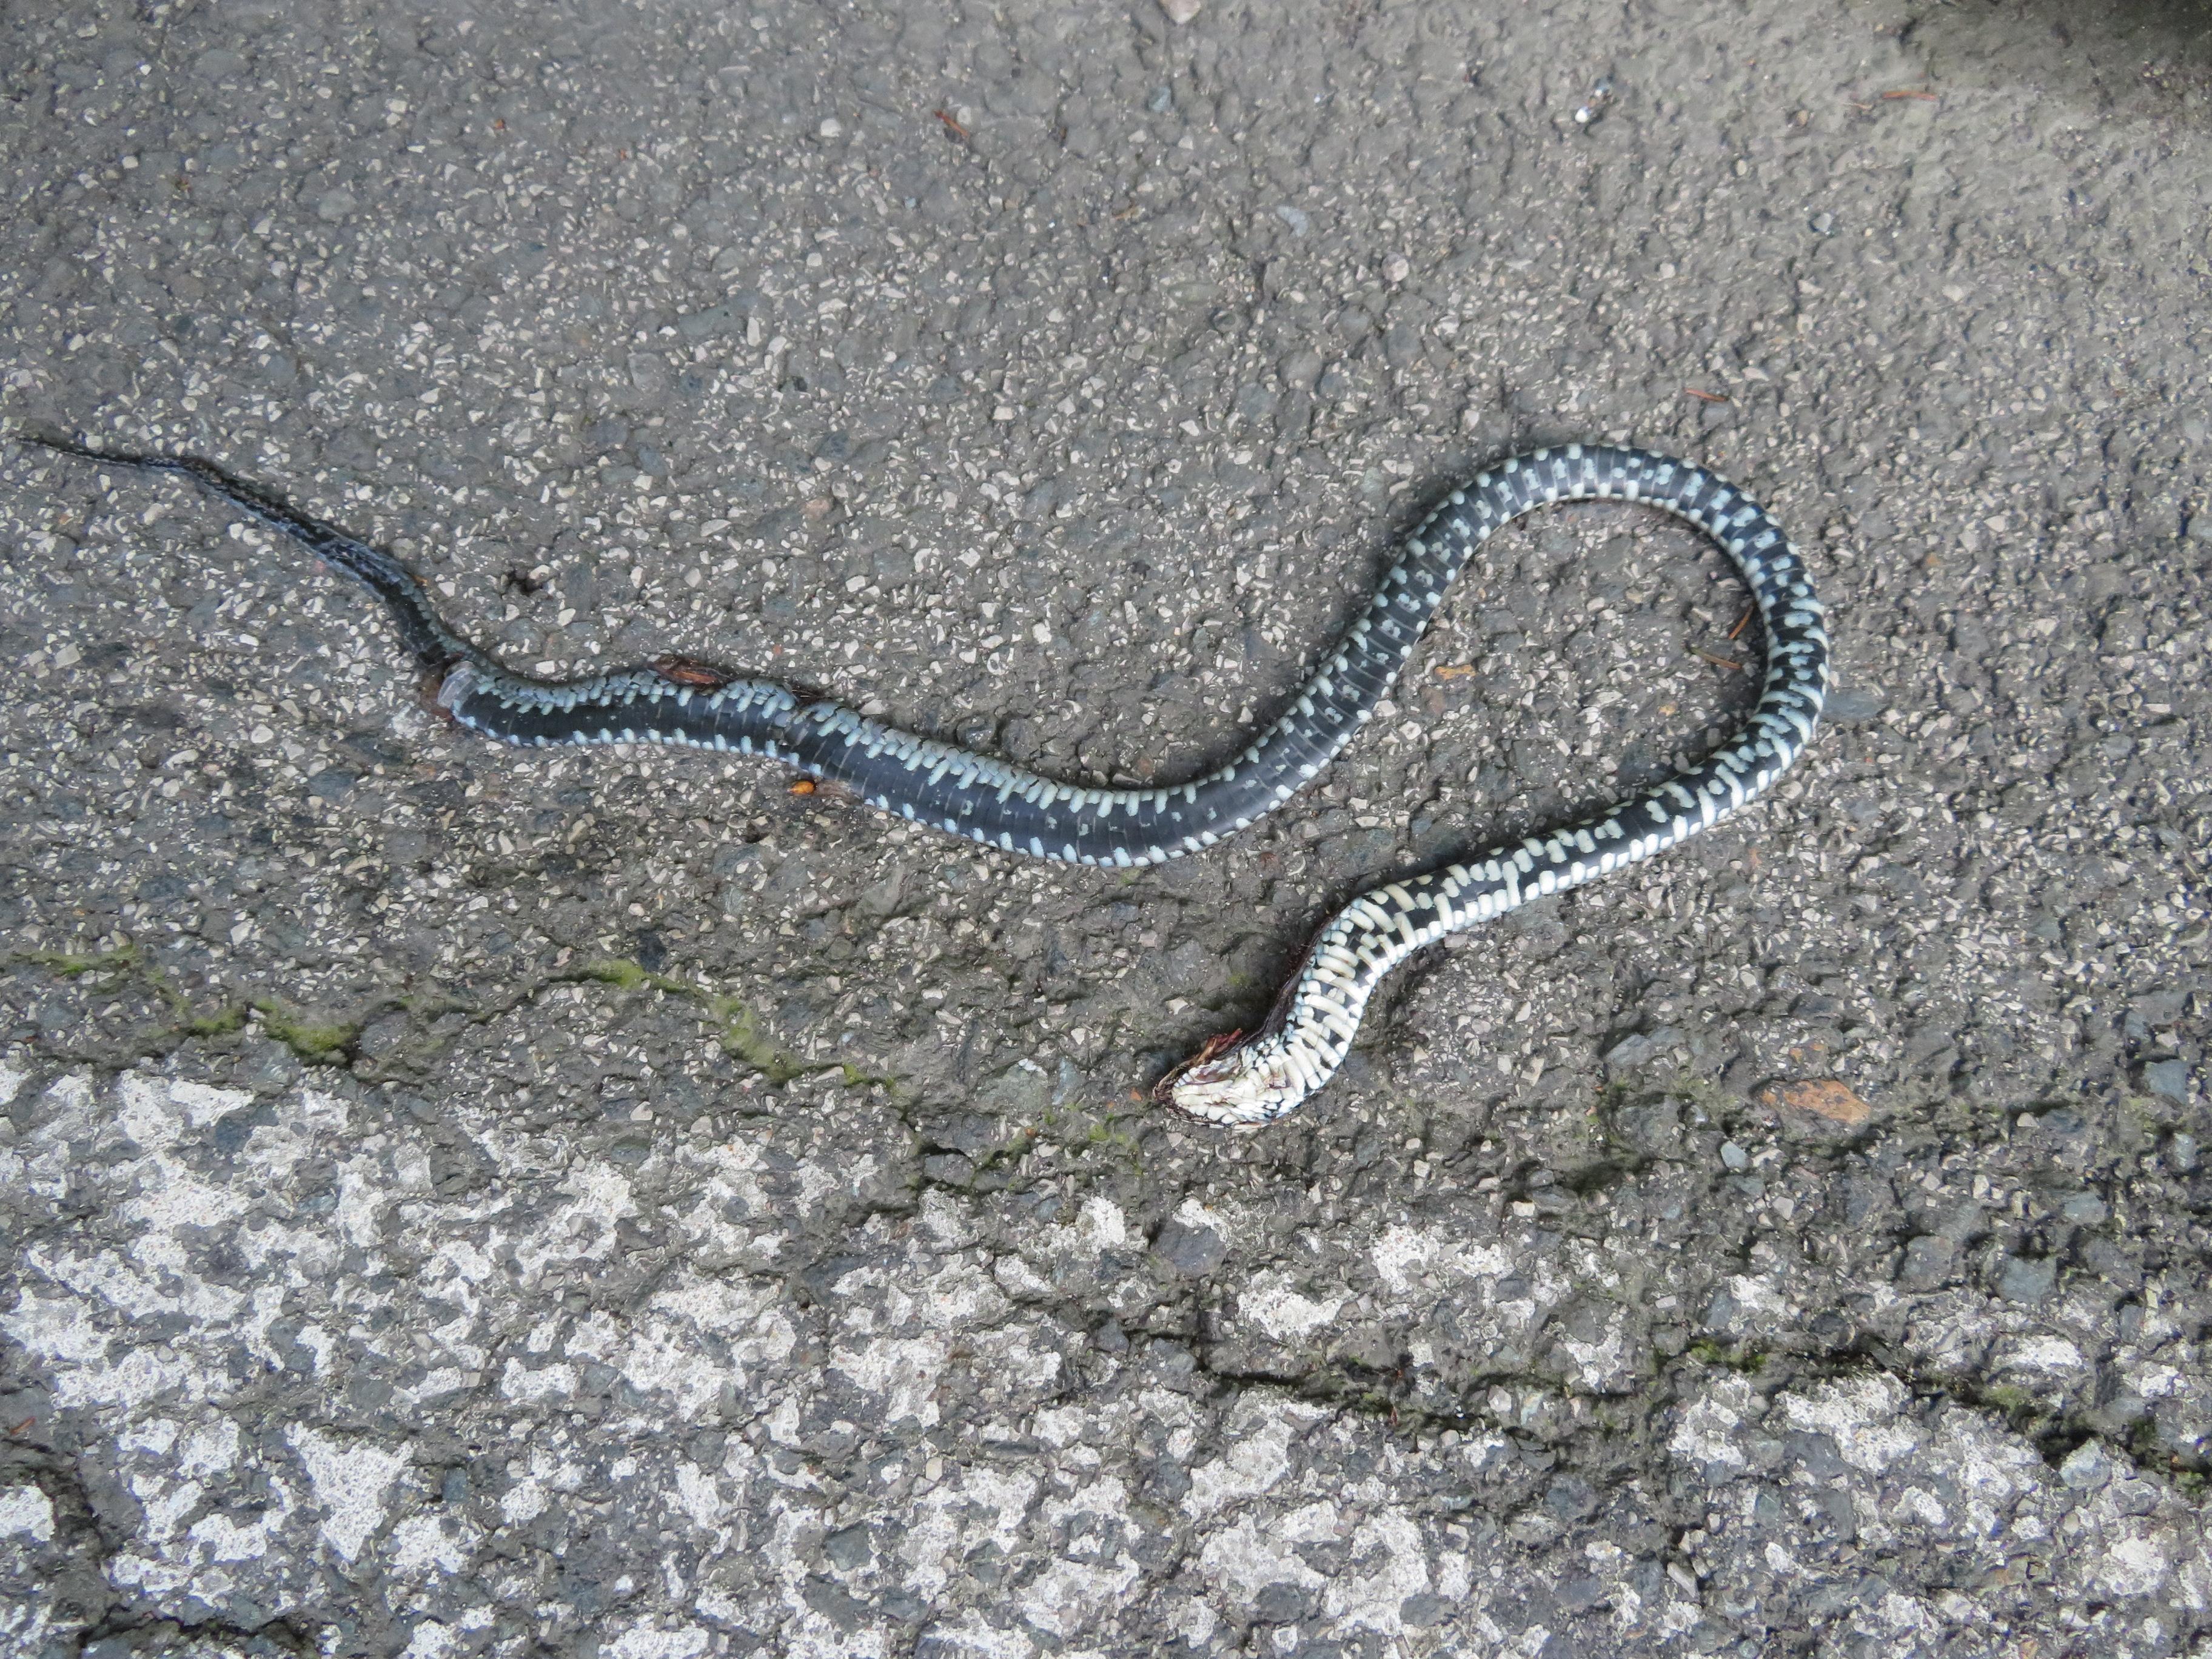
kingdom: Animalia
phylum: Chordata
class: Squamata
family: Colubridae
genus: Natrix
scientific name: Natrix natrix
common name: Grass snake
